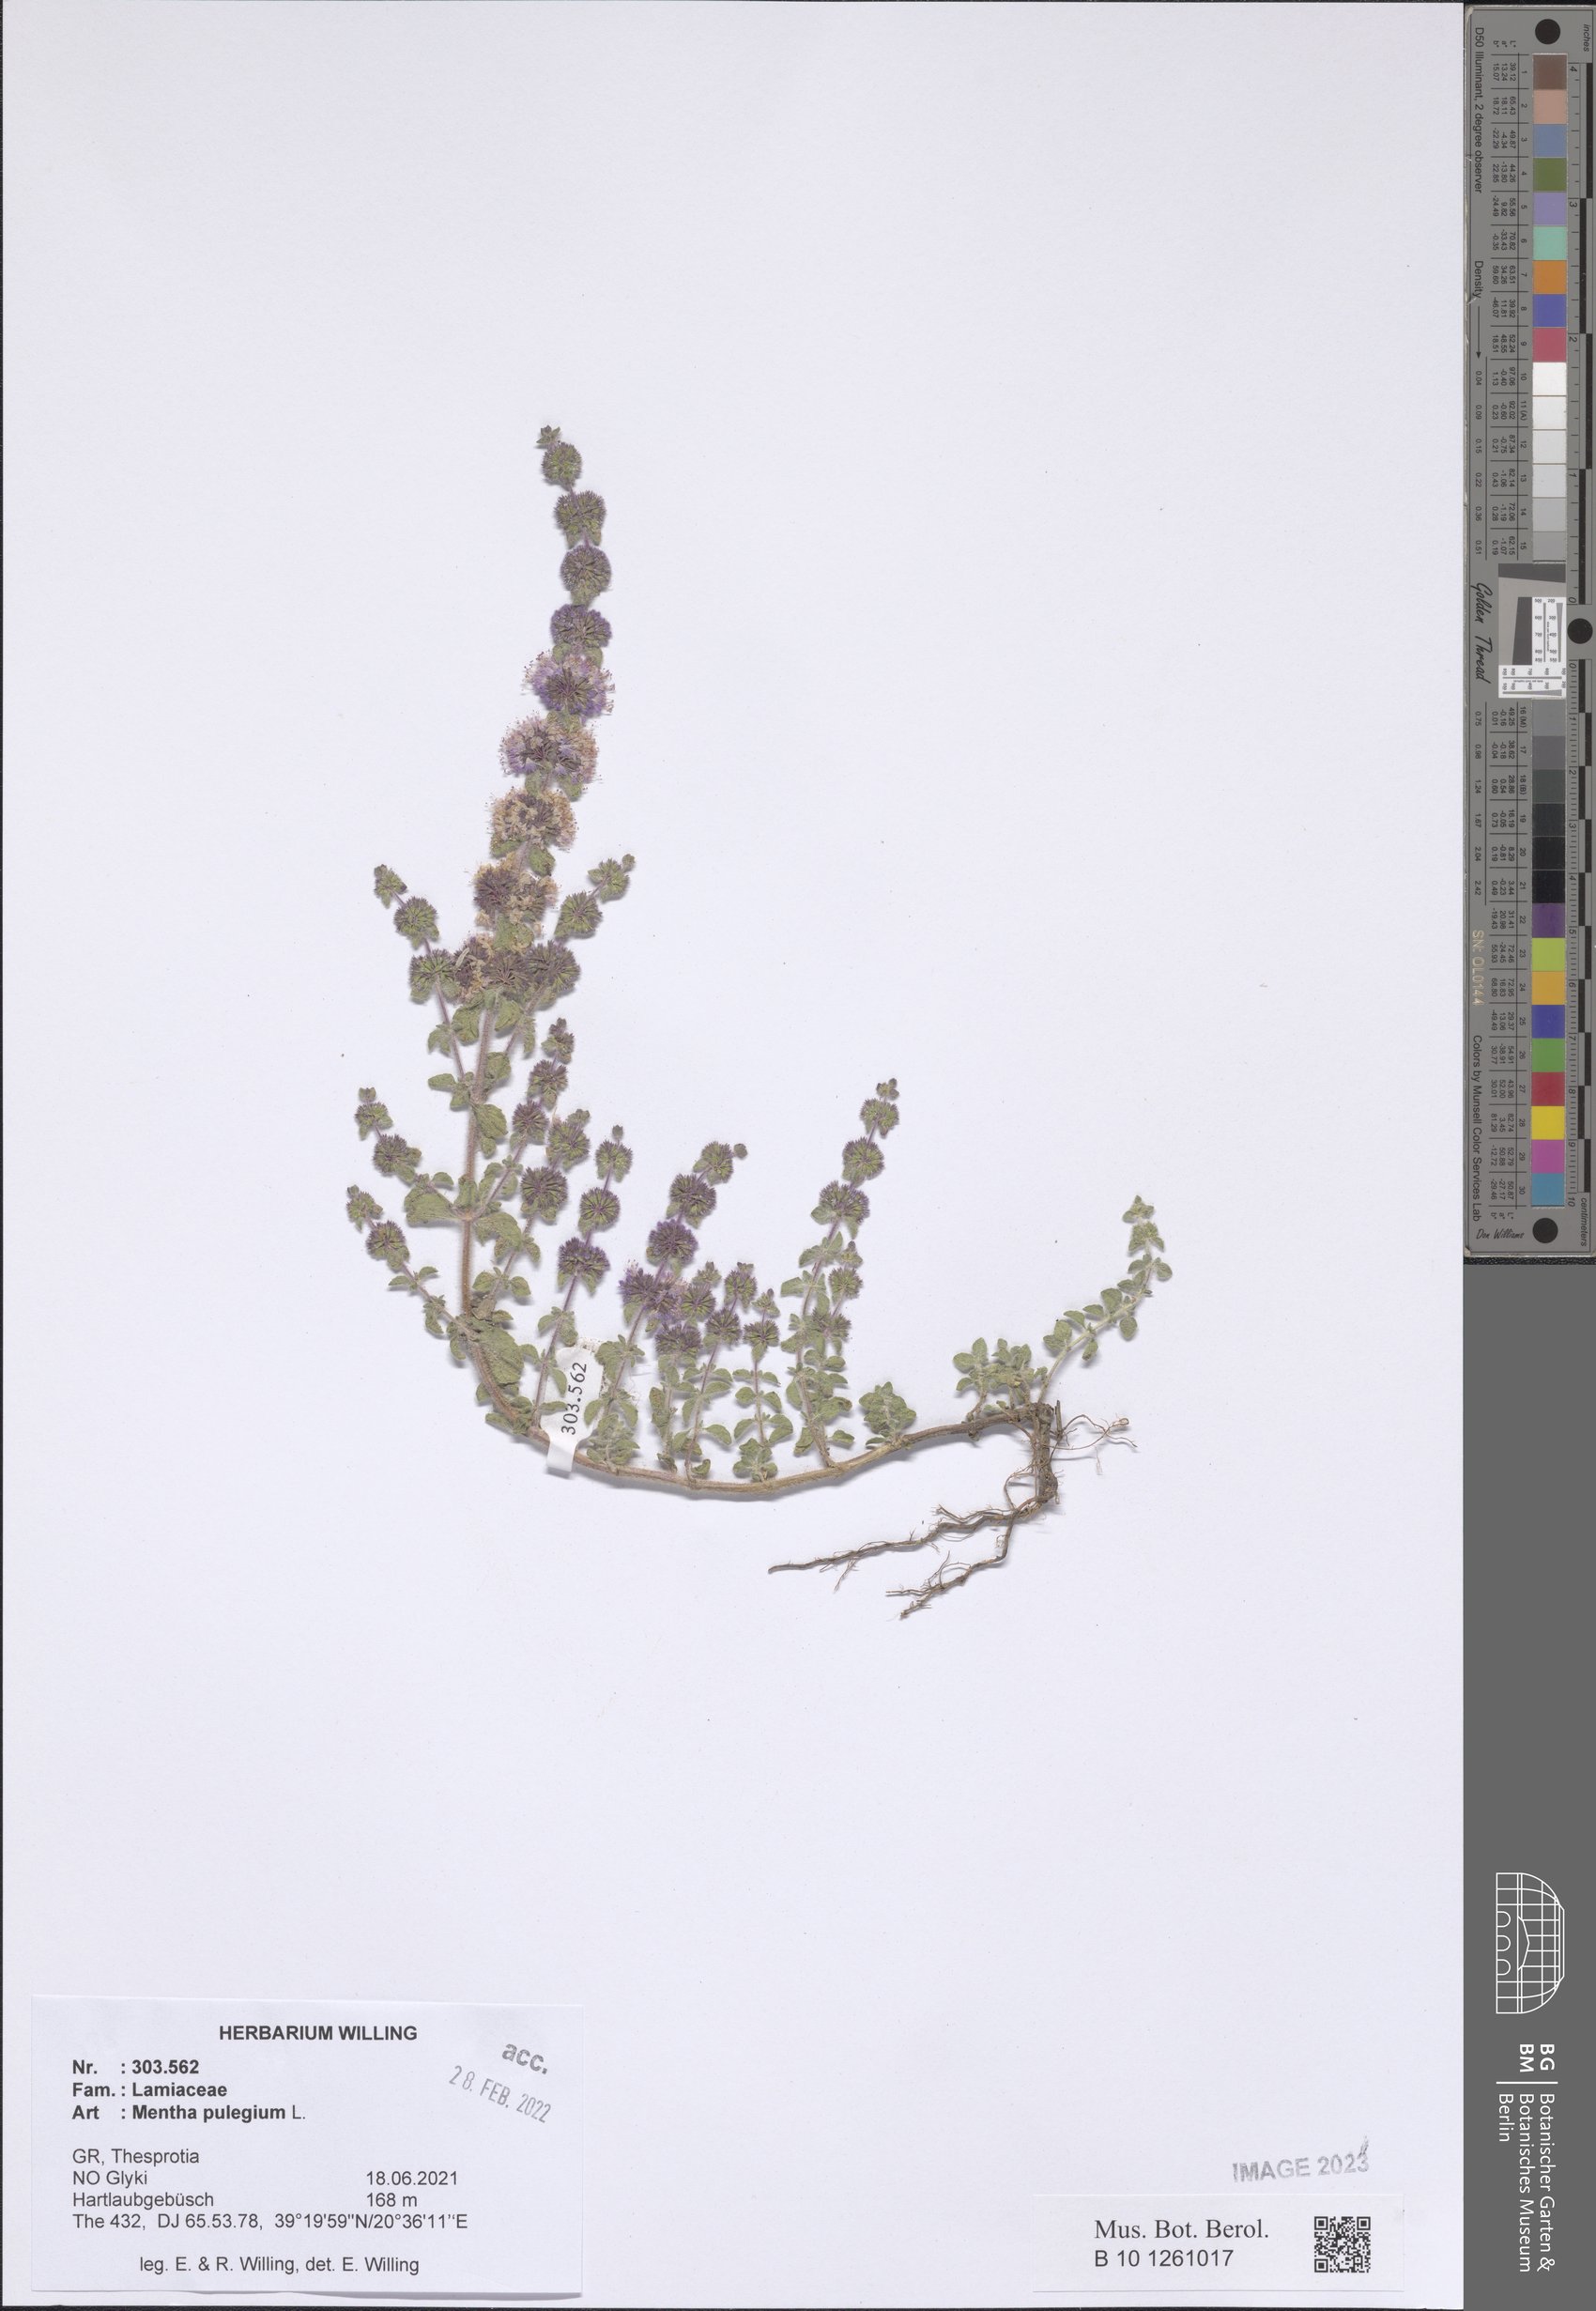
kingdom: Plantae
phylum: Tracheophyta
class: Magnoliopsida
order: Lamiales
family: Lamiaceae
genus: Mentha
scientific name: Mentha pulegium
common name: Pennyroyal
